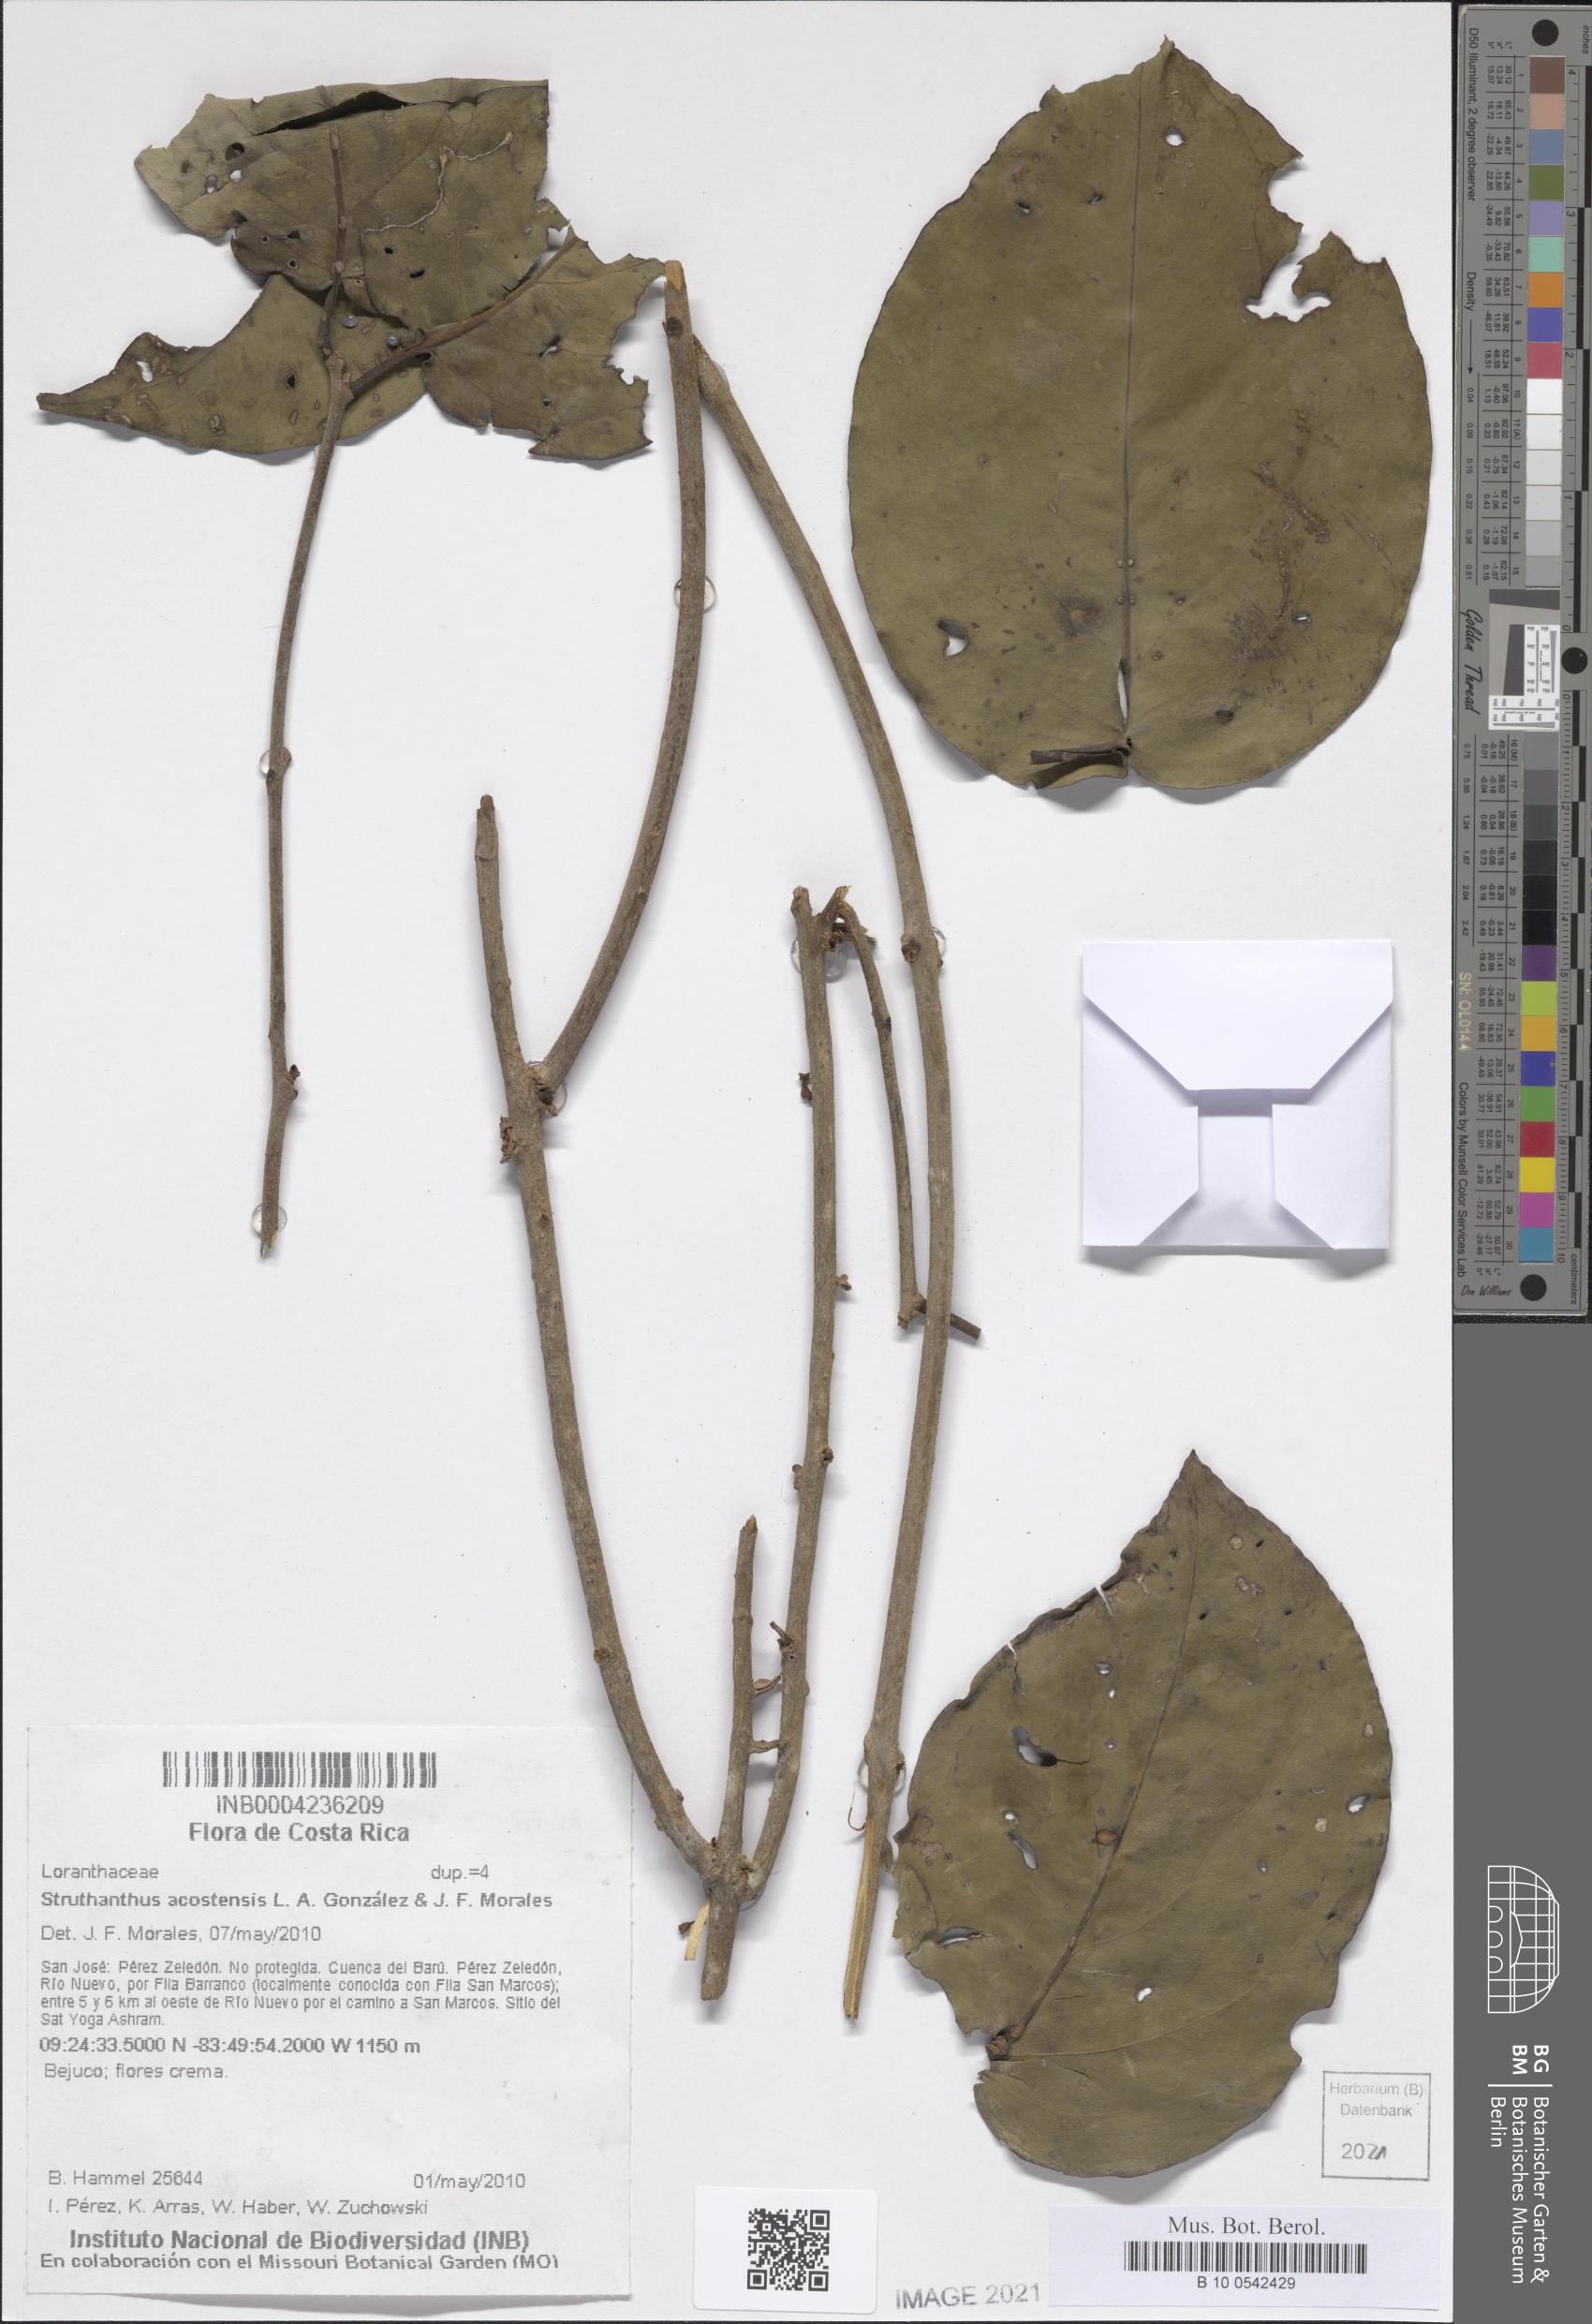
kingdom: Plantae
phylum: Tracheophyta
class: Magnoliopsida
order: Santalales
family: Loranthaceae
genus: Struthanthus
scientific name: Struthanthus acostensis
